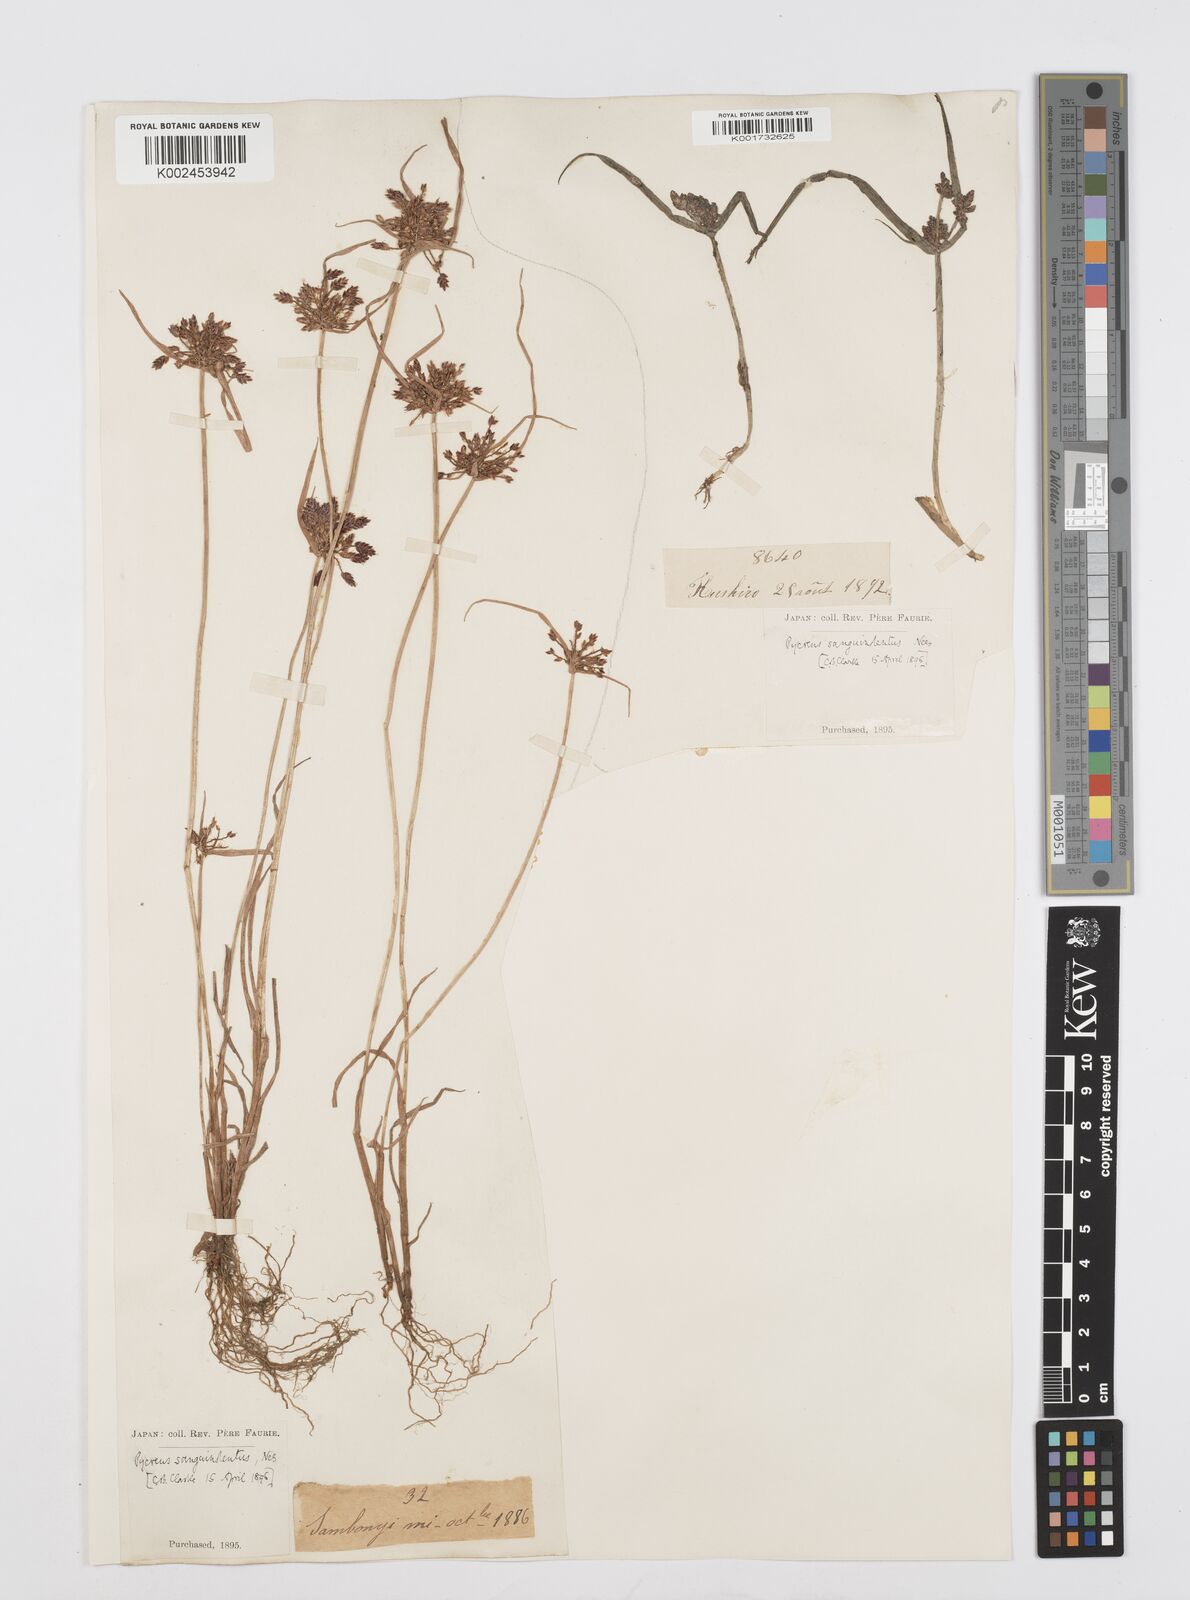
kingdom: Plantae
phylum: Tracheophyta
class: Liliopsida
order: Poales
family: Cyperaceae
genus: Cyperus
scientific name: Cyperus sanguinolentus
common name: Purpleglume flatsedge
